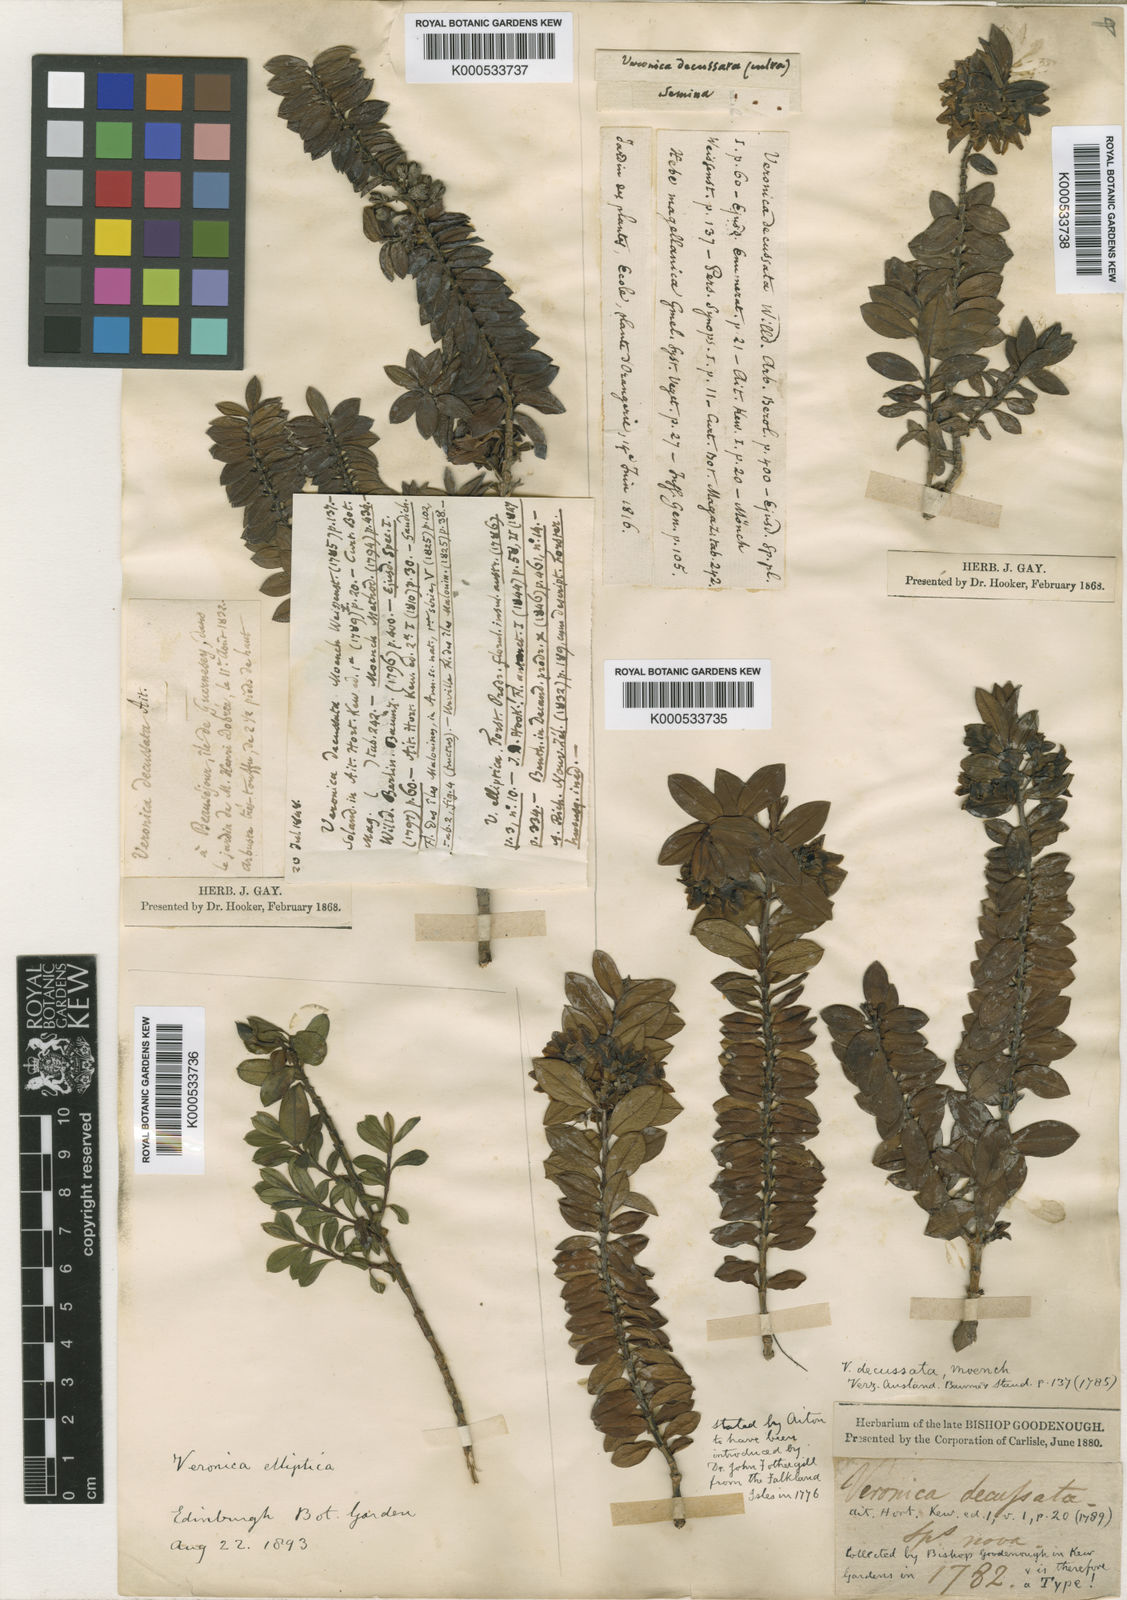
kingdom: Plantae
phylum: Tracheophyta
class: Magnoliopsida
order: Lamiales
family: Plantaginaceae
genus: Veronica
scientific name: Veronica elliptica
